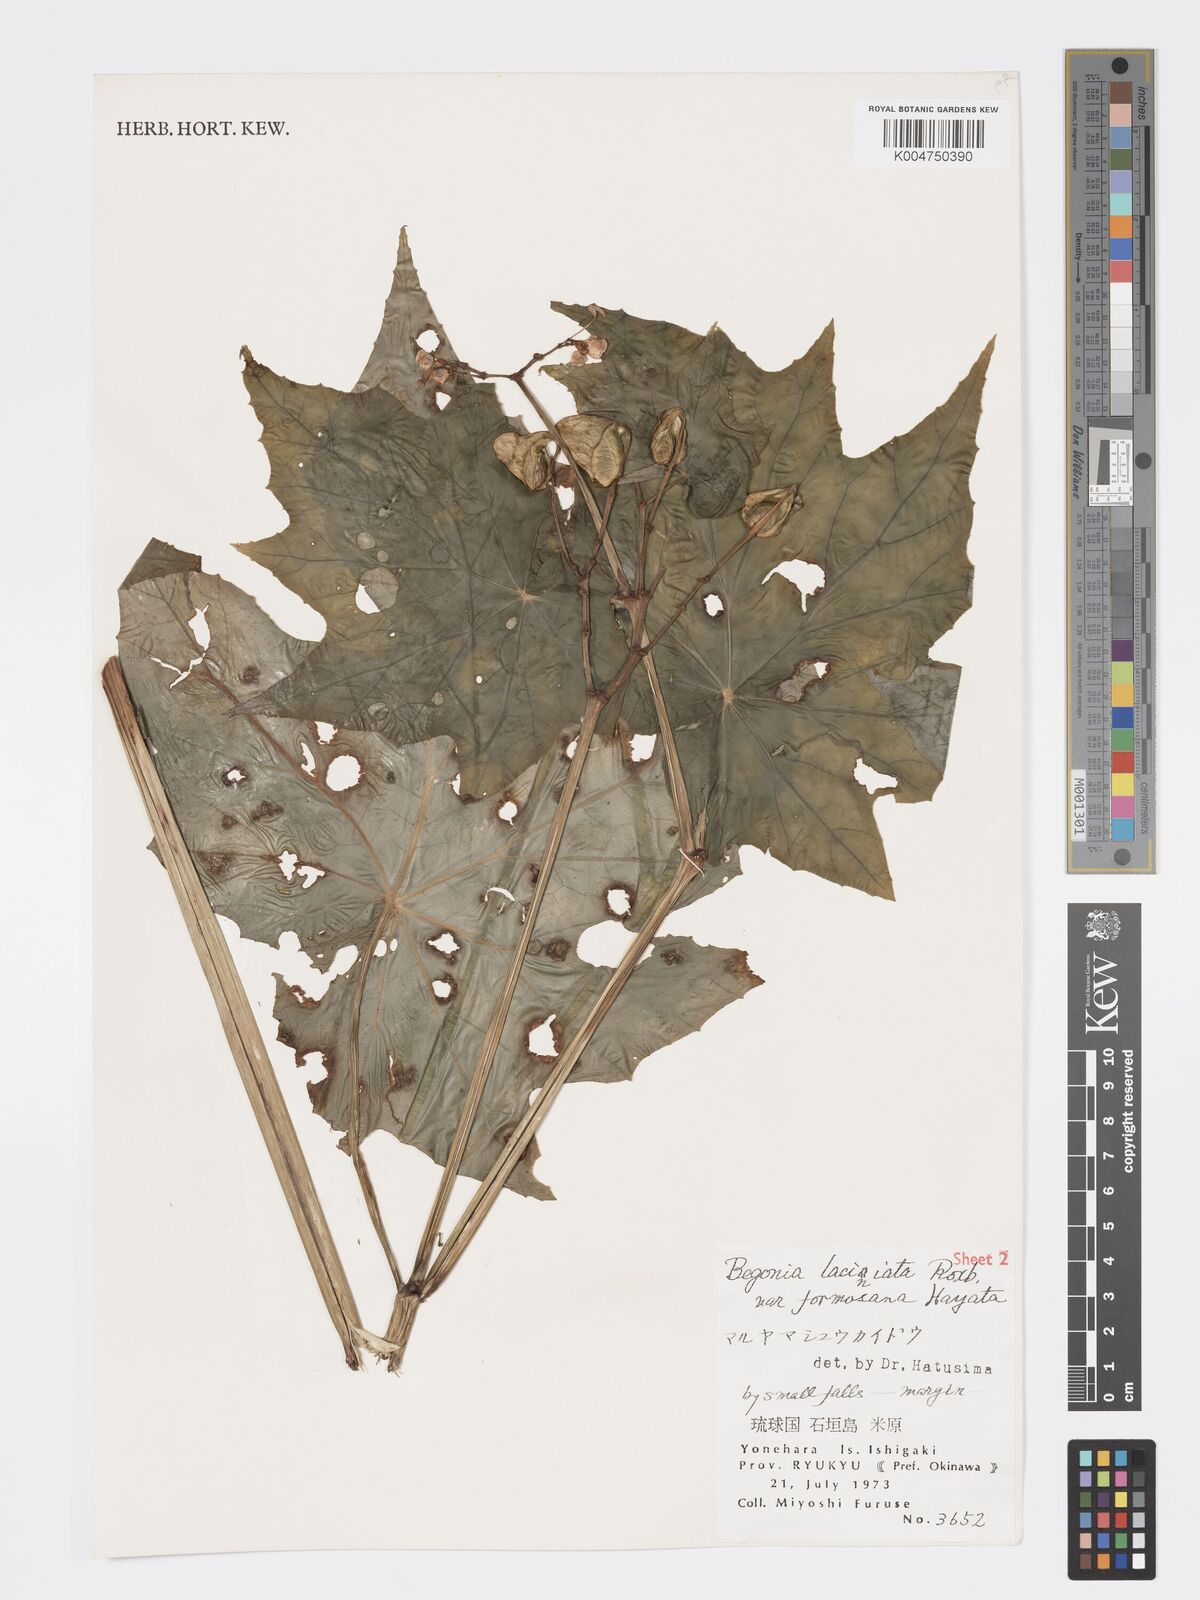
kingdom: Plantae
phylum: Tracheophyta
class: Magnoliopsida
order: Cucurbitales
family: Begoniaceae
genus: Begonia
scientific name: Begonia formosana
